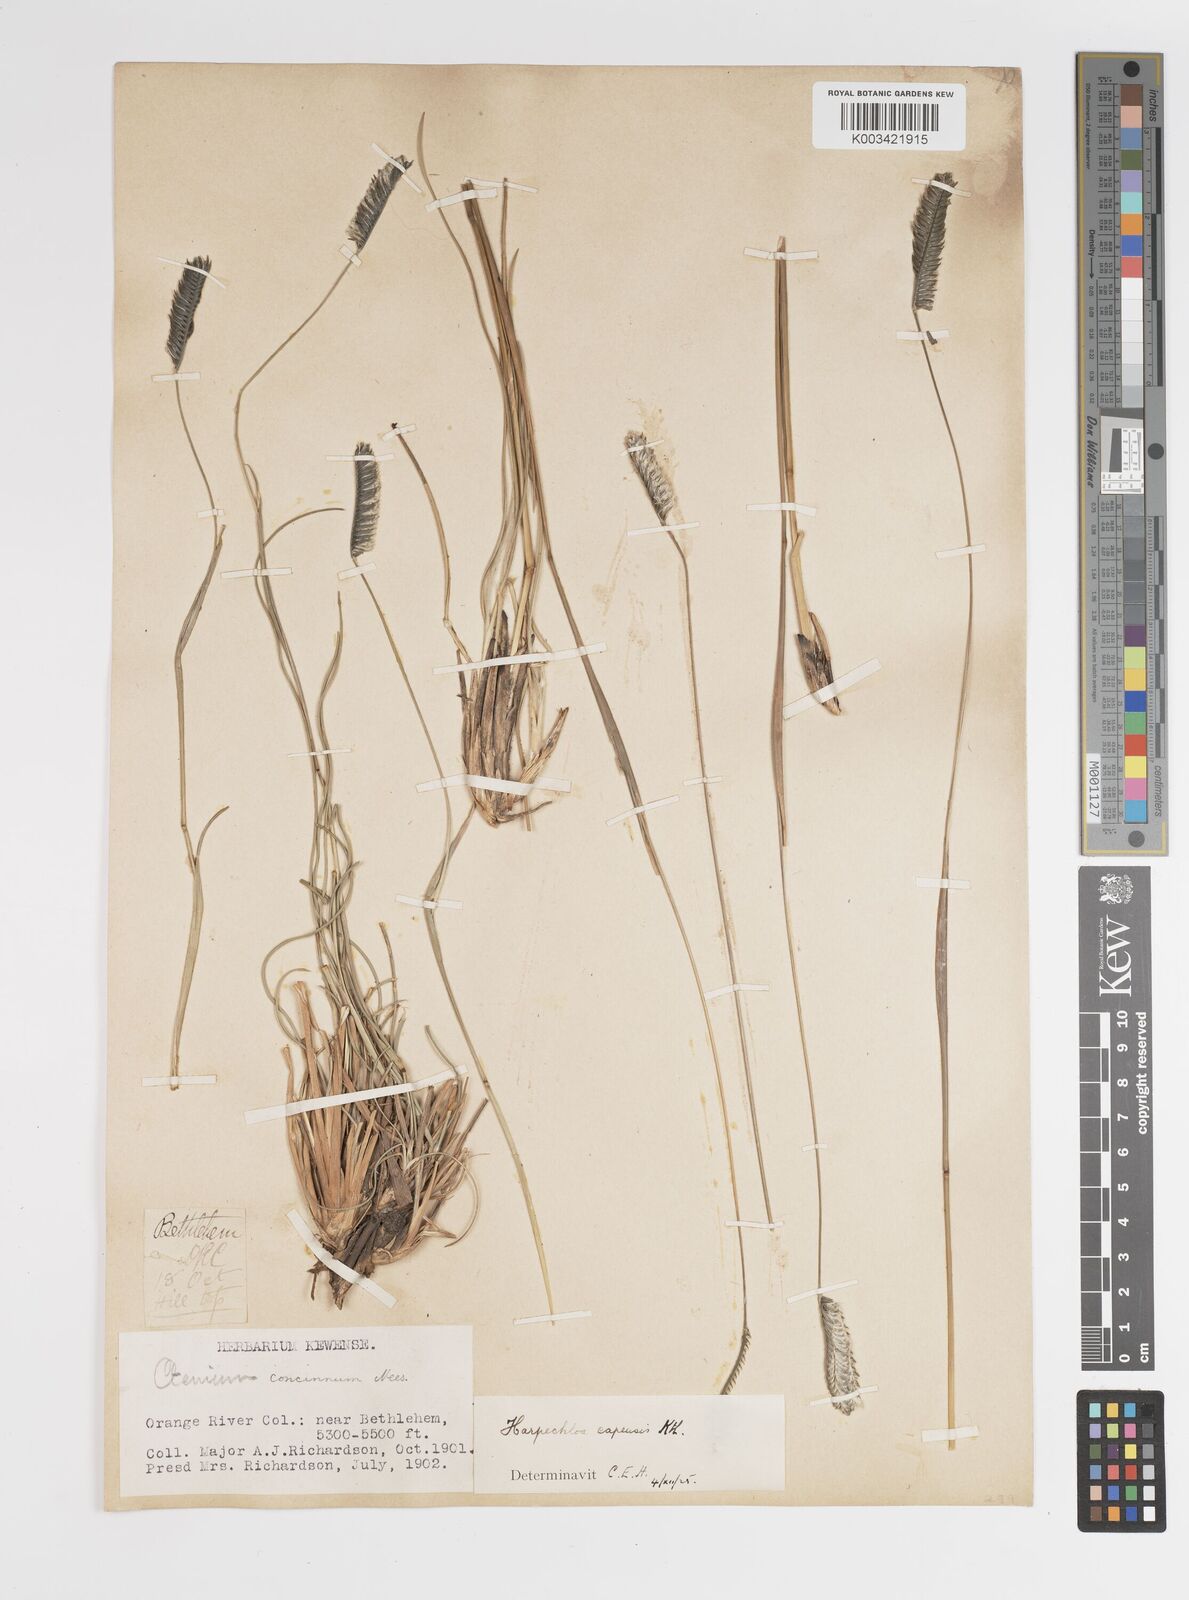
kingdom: Plantae
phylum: Tracheophyta
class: Liliopsida
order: Poales
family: Poaceae
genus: Harpochloa
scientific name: Harpochloa falx
